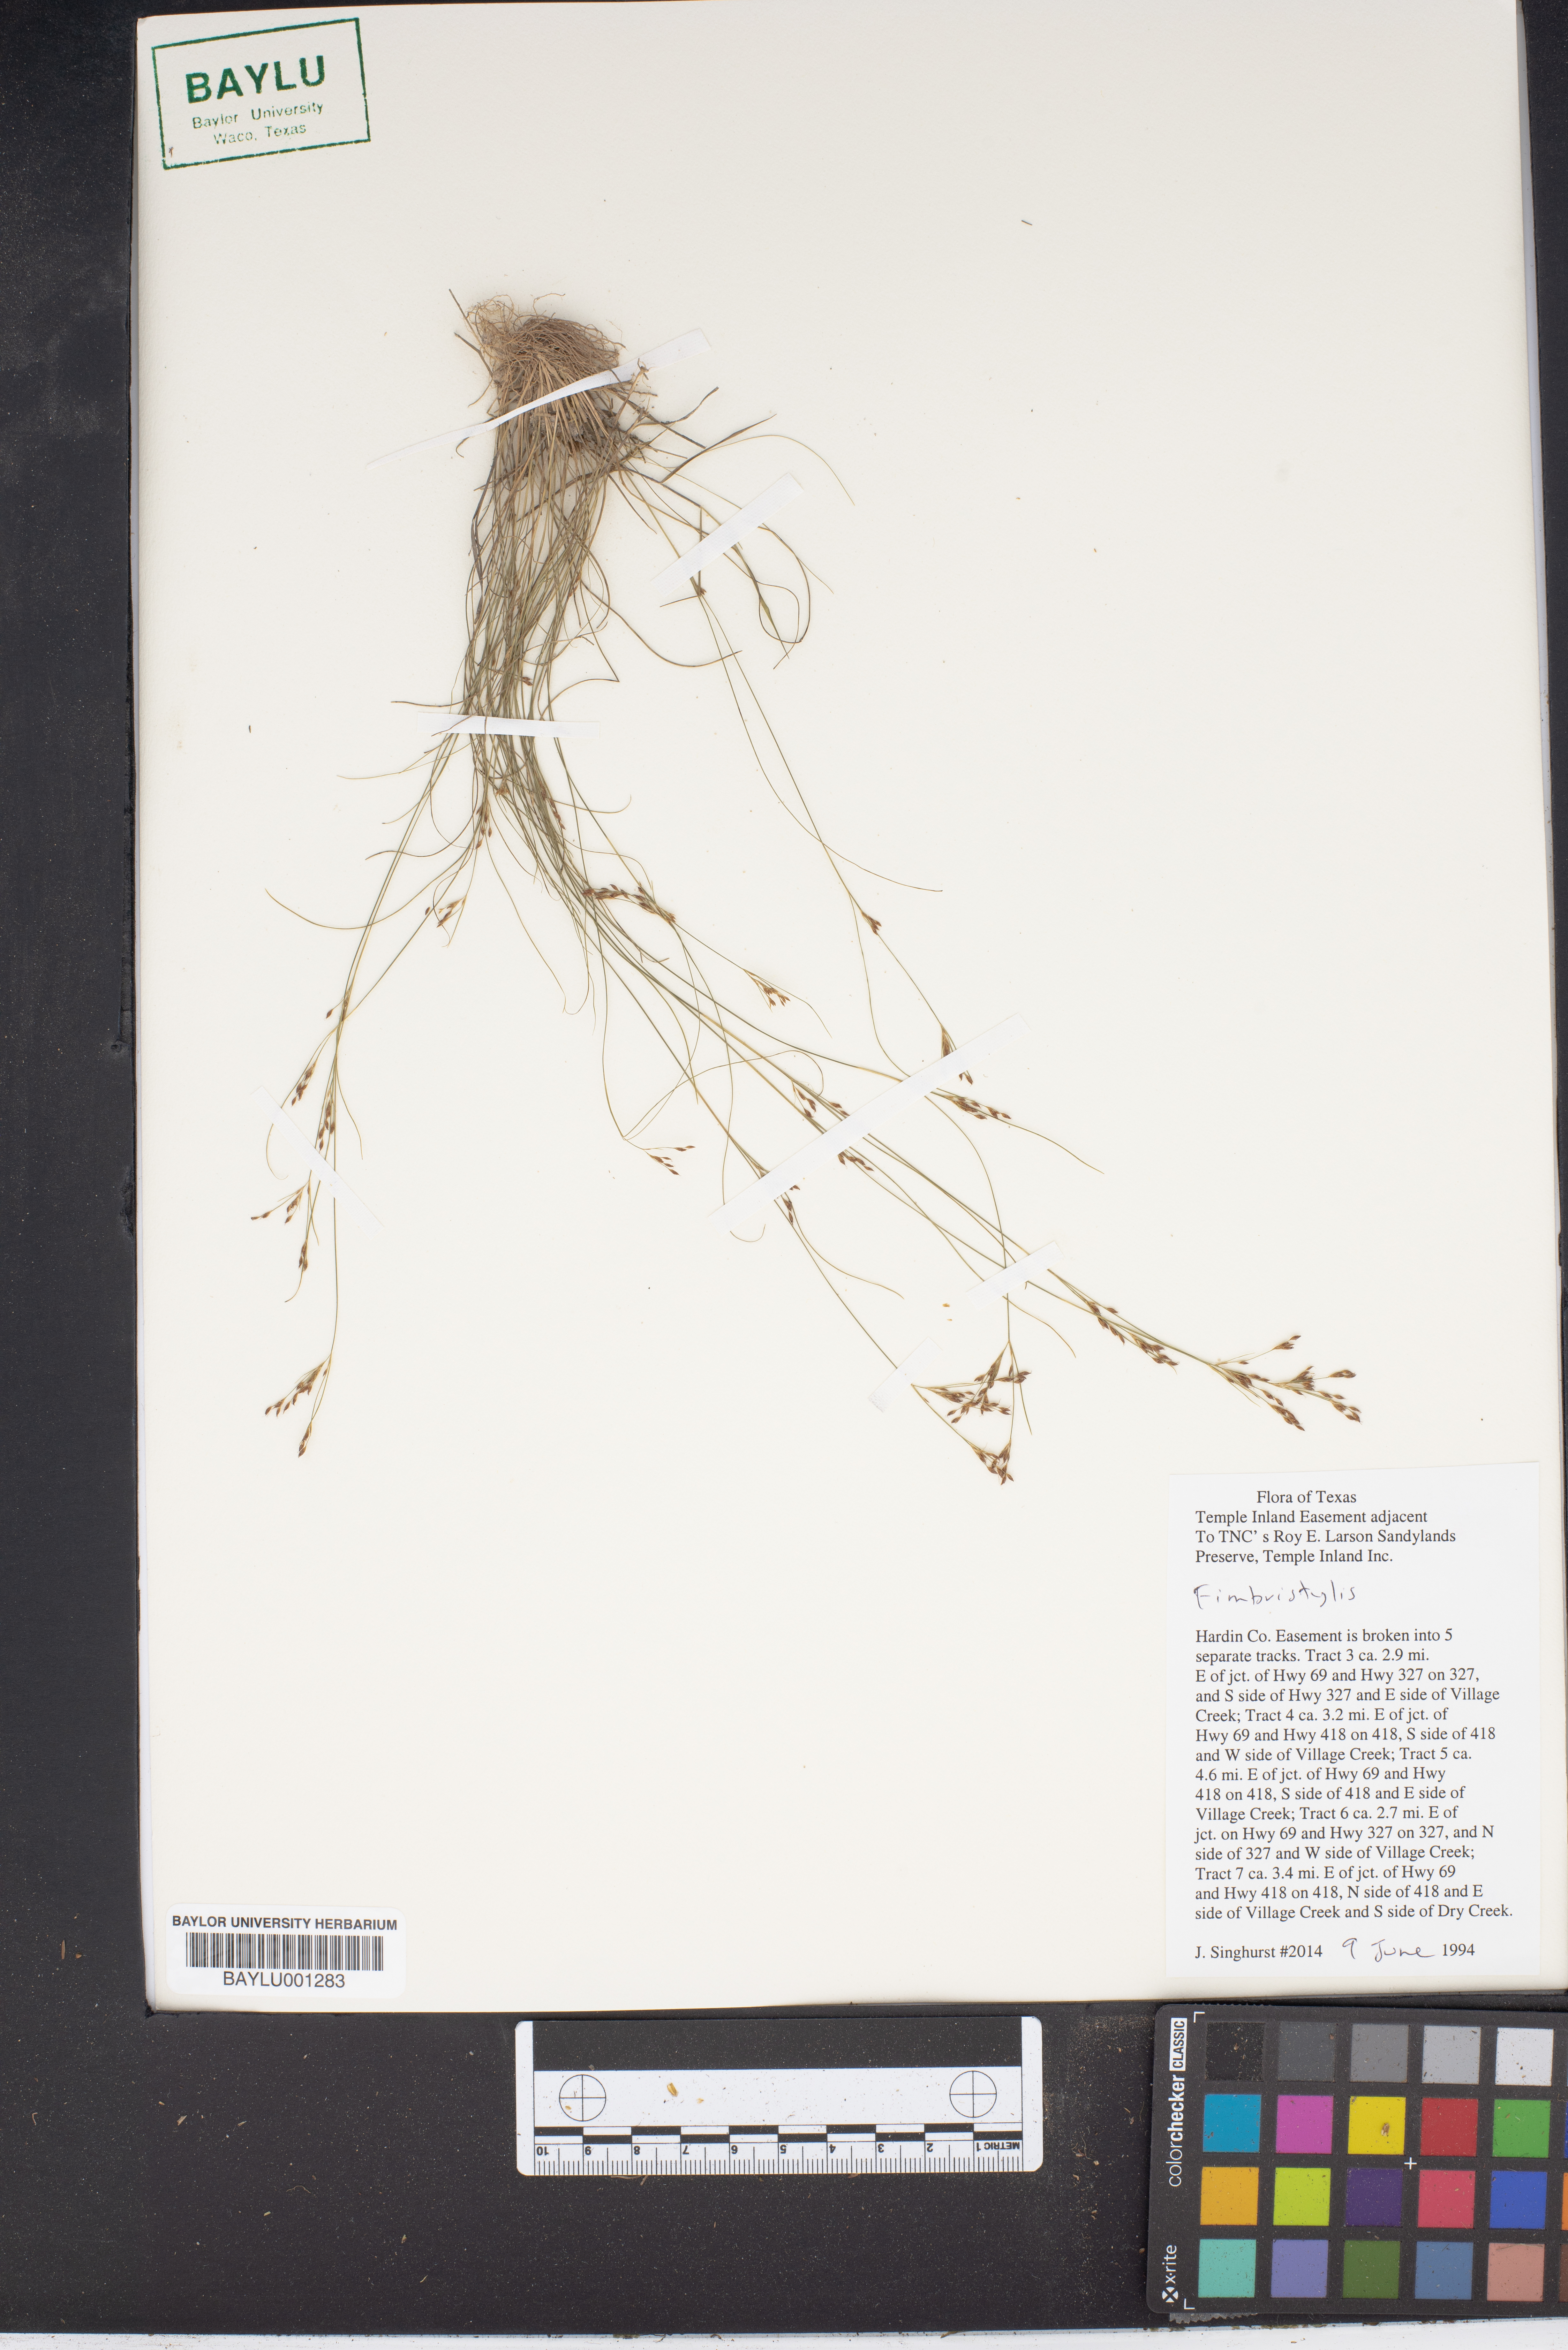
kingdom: Plantae
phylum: Tracheophyta
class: Liliopsida
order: Poales
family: Cyperaceae
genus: Fimbristylis
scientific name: Fimbristylis
